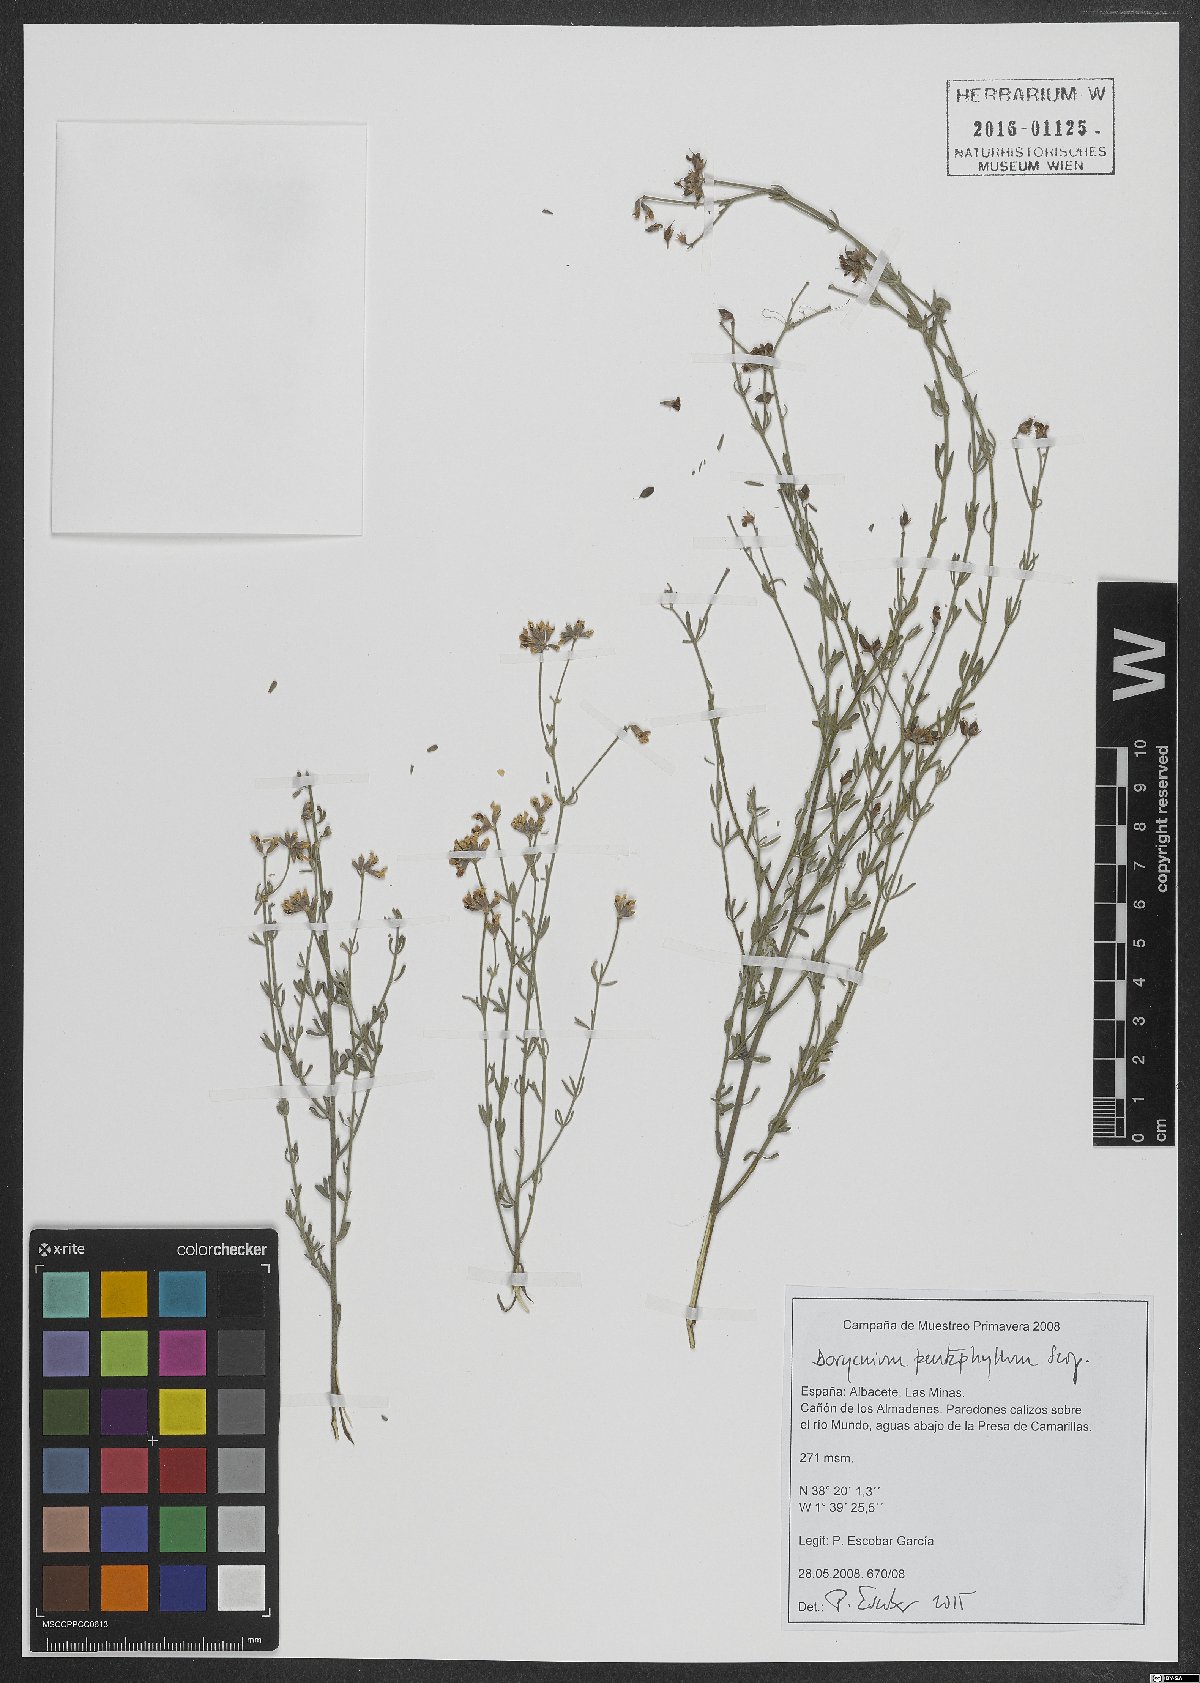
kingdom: Plantae
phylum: Tracheophyta
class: Magnoliopsida
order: Fabales
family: Fabaceae
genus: Lotus
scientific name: Lotus dorycnium
